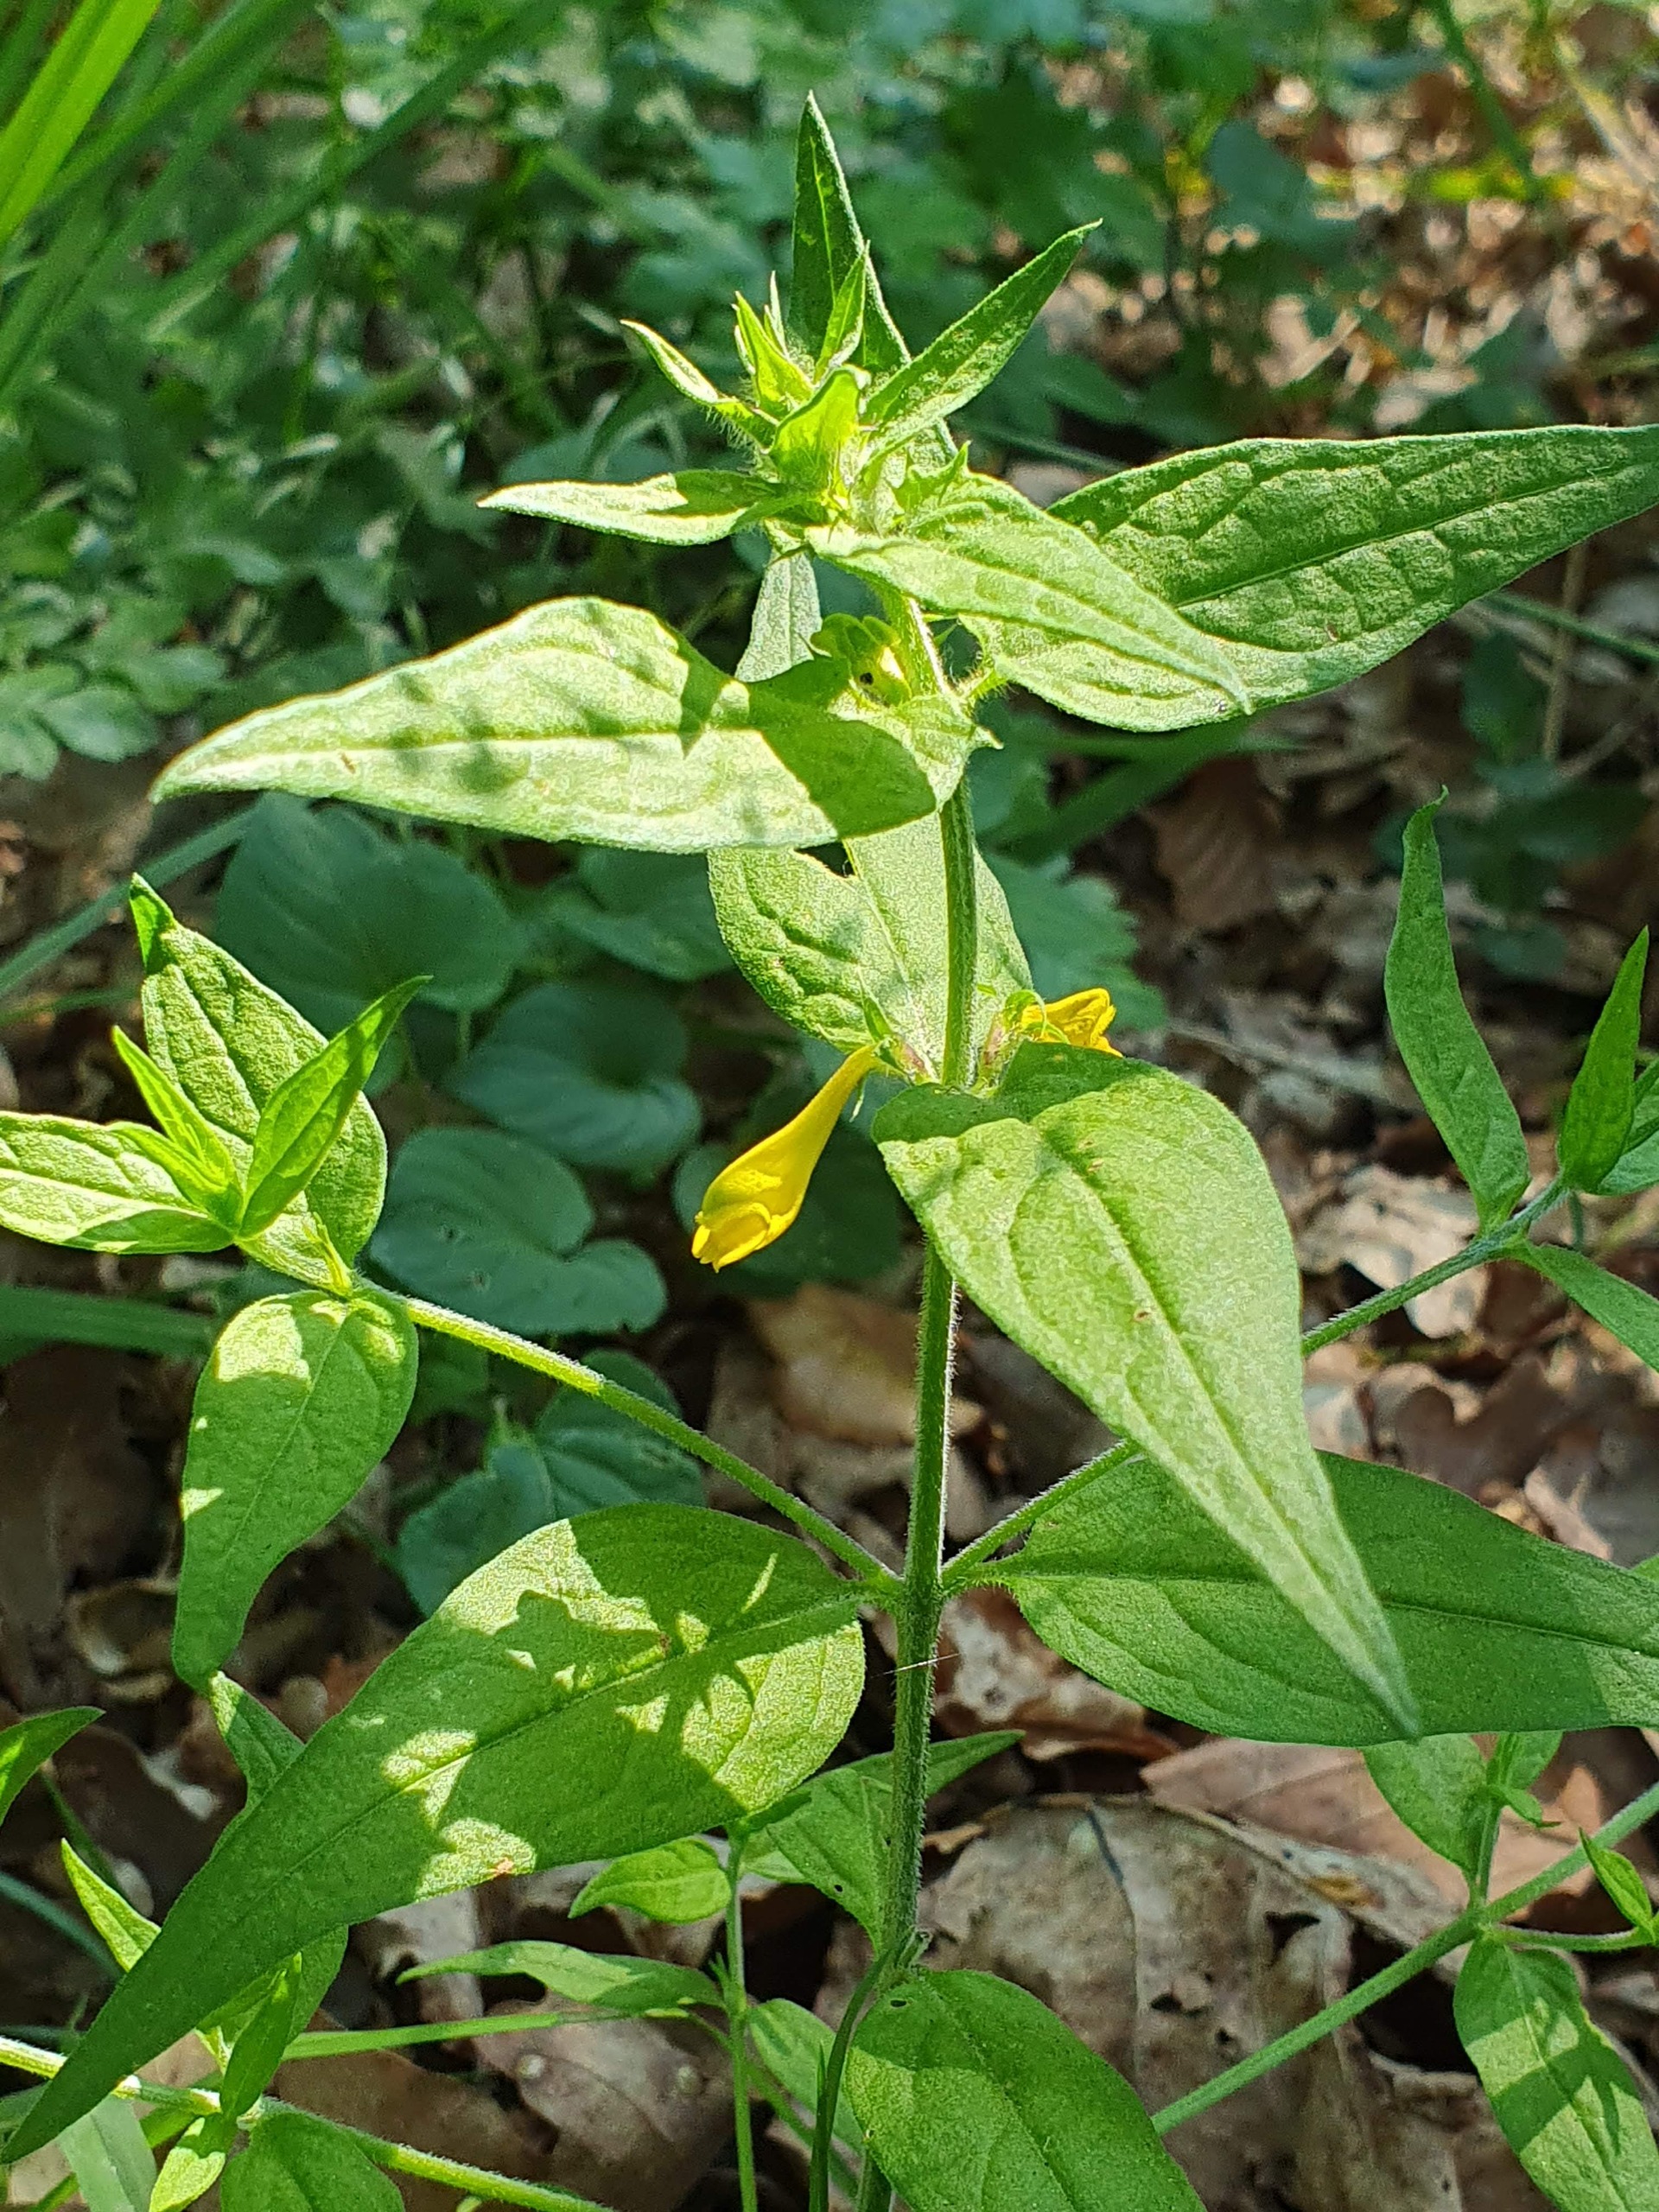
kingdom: Plantae
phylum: Tracheophyta
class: Magnoliopsida
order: Lamiales
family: Orobanchaceae
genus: Melampyrum
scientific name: Melampyrum nemorosum
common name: Blåtoppet kohvede
